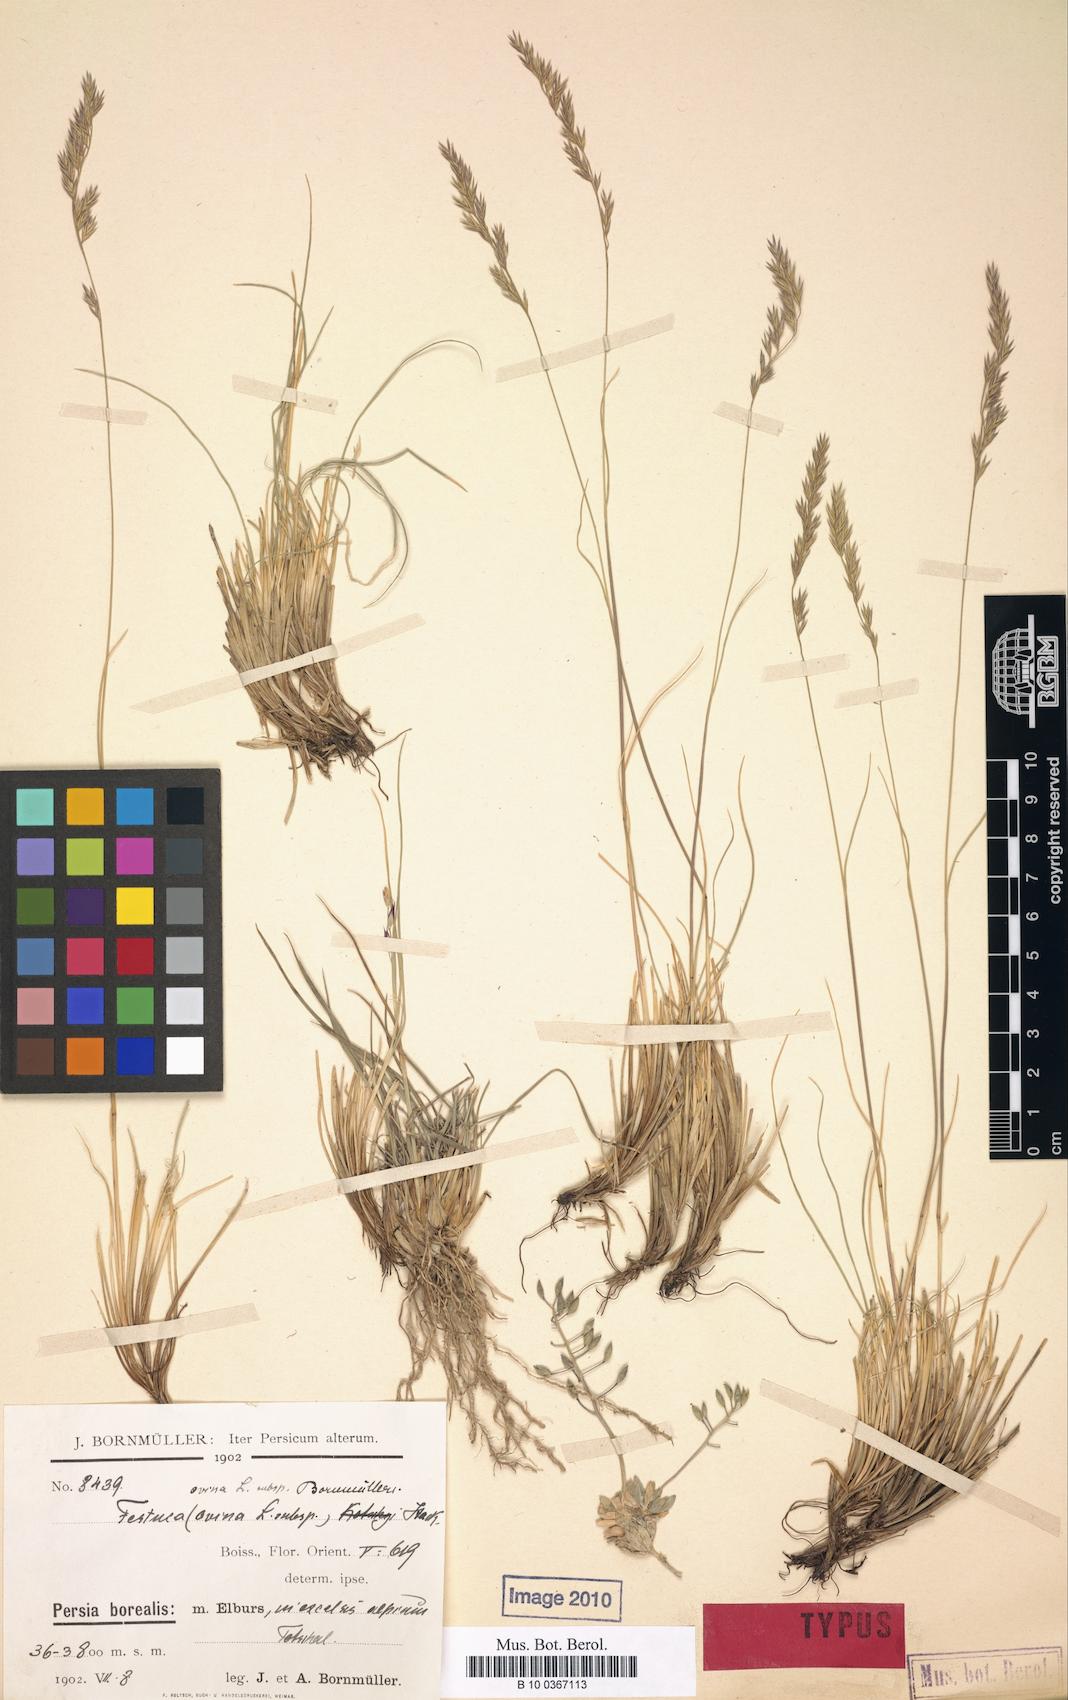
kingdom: Plantae
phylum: Tracheophyta
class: Liliopsida
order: Poales
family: Poaceae
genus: Festuca
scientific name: Festuca alaica
